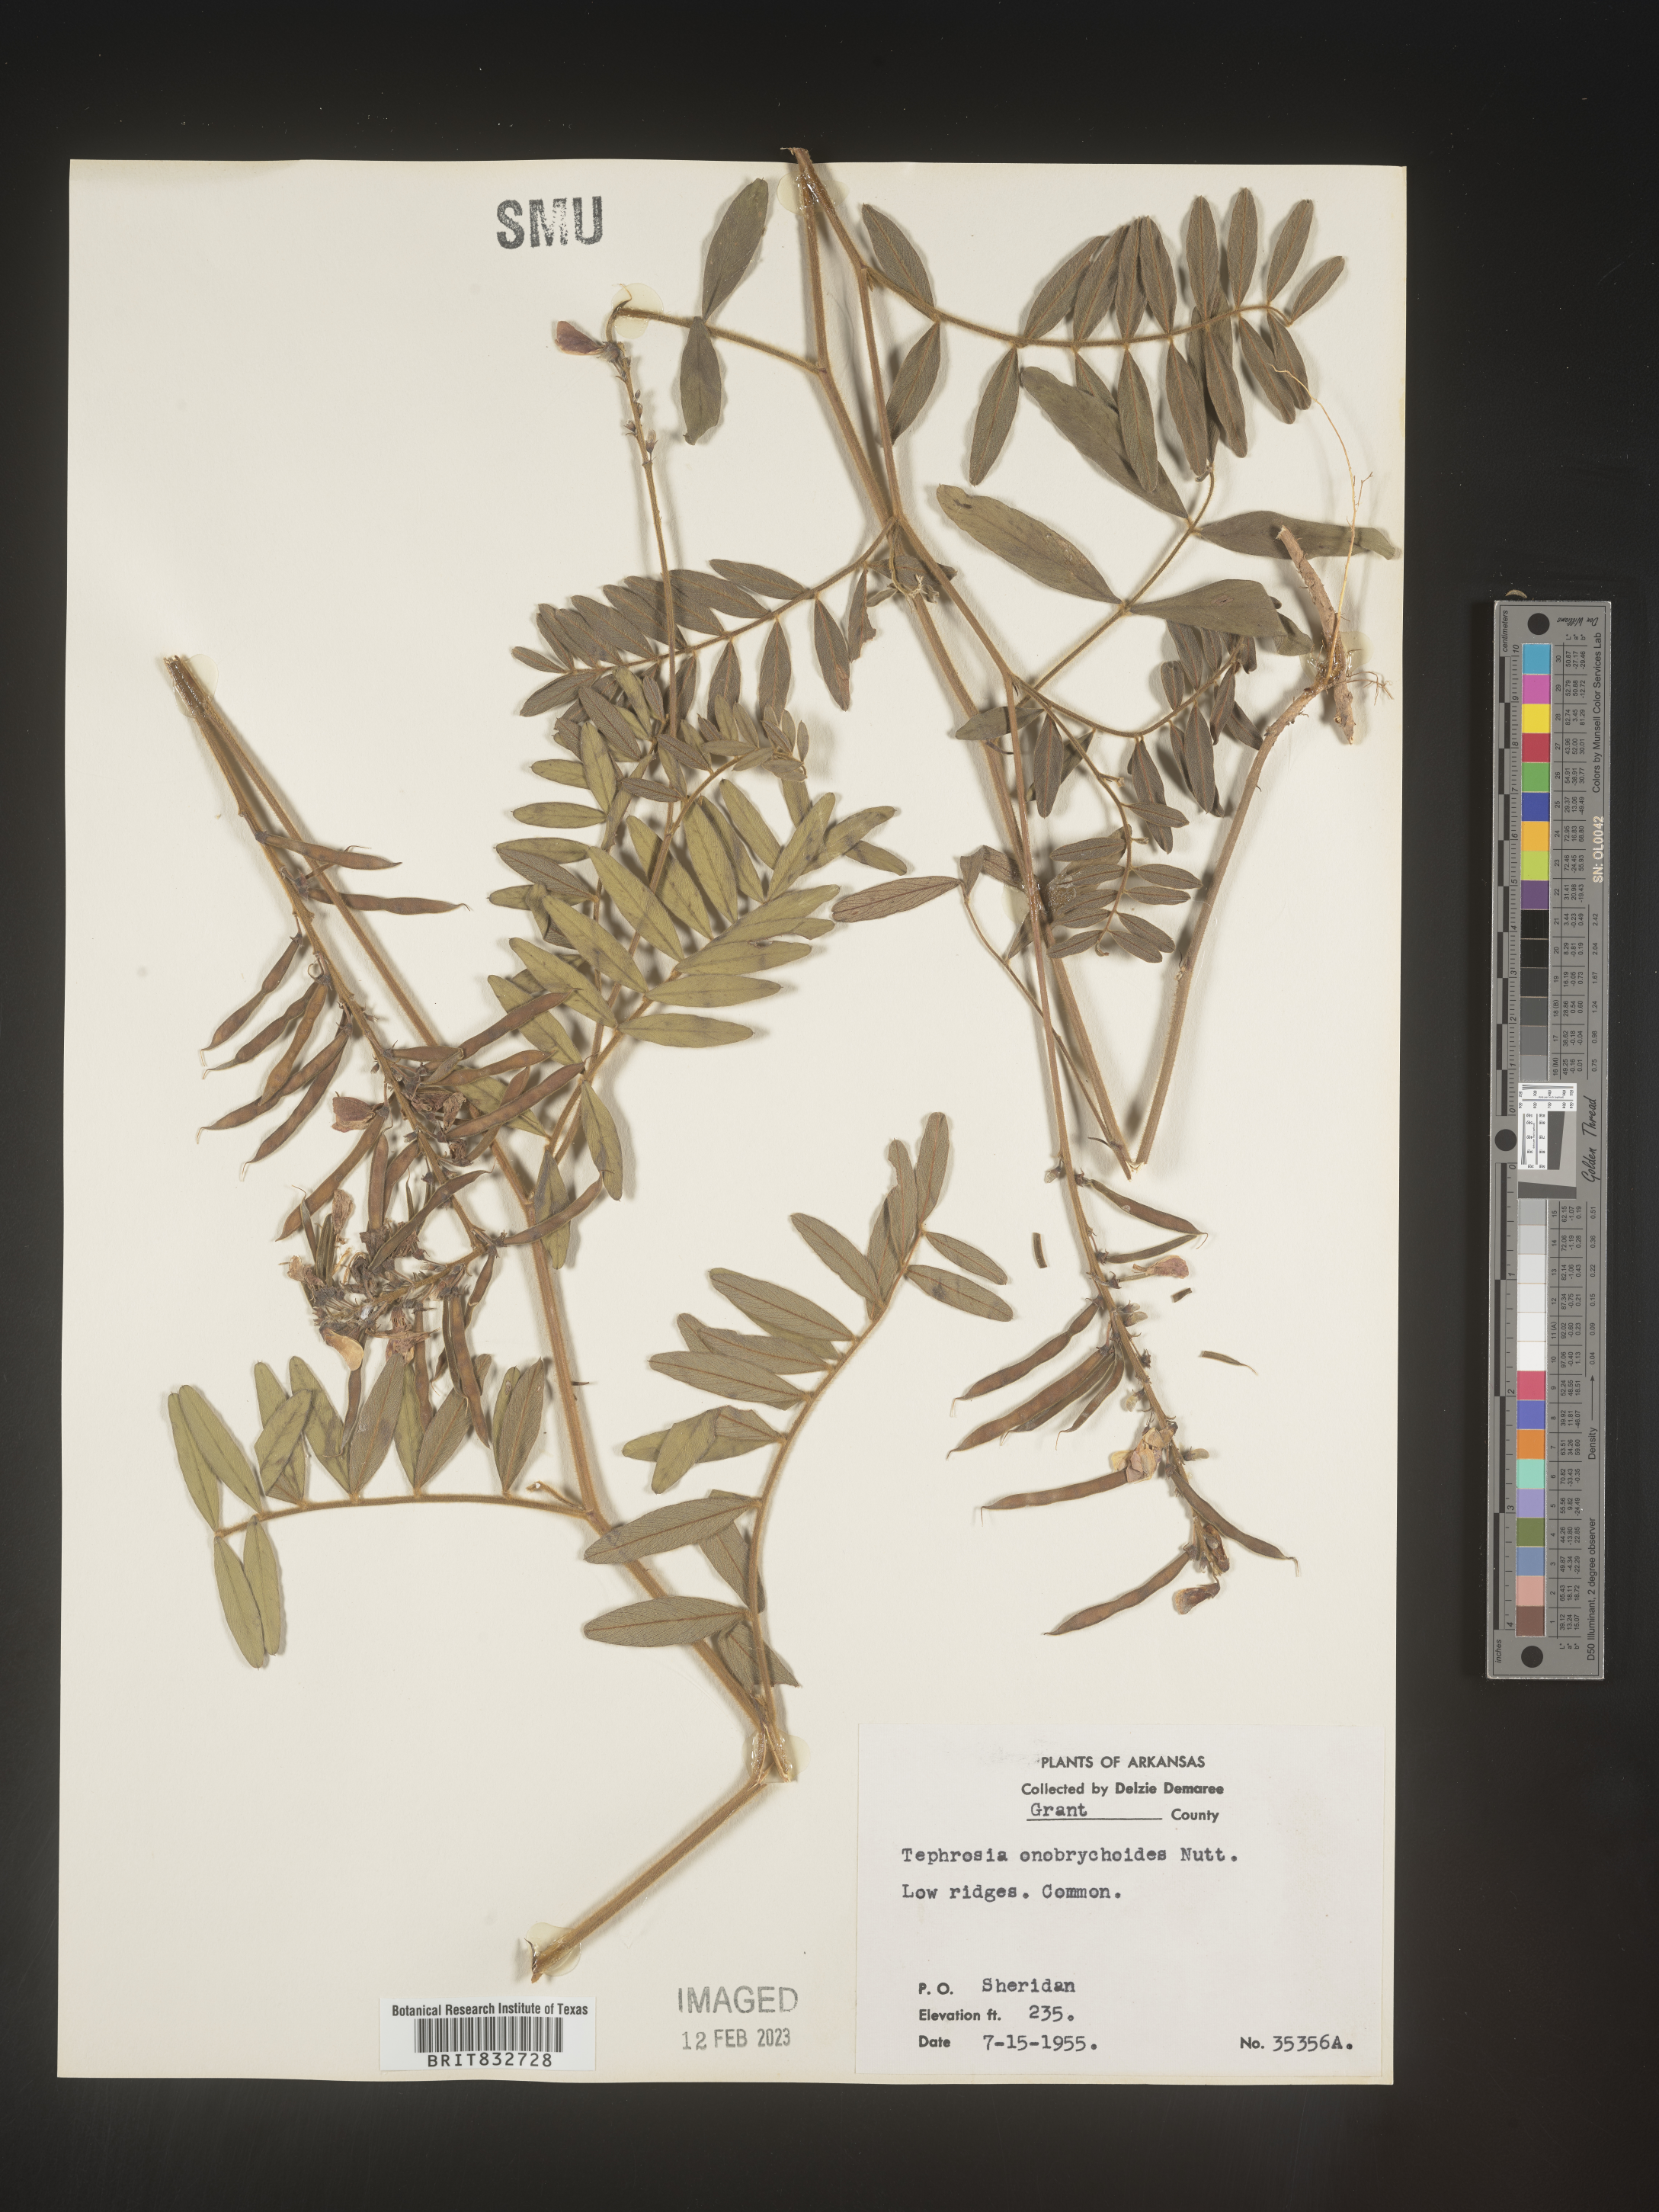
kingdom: Plantae
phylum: Tracheophyta
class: Magnoliopsida
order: Fabales
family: Fabaceae
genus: Tephrosia
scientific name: Tephrosia onobrychoides
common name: Multi-bloom hoary-pea
